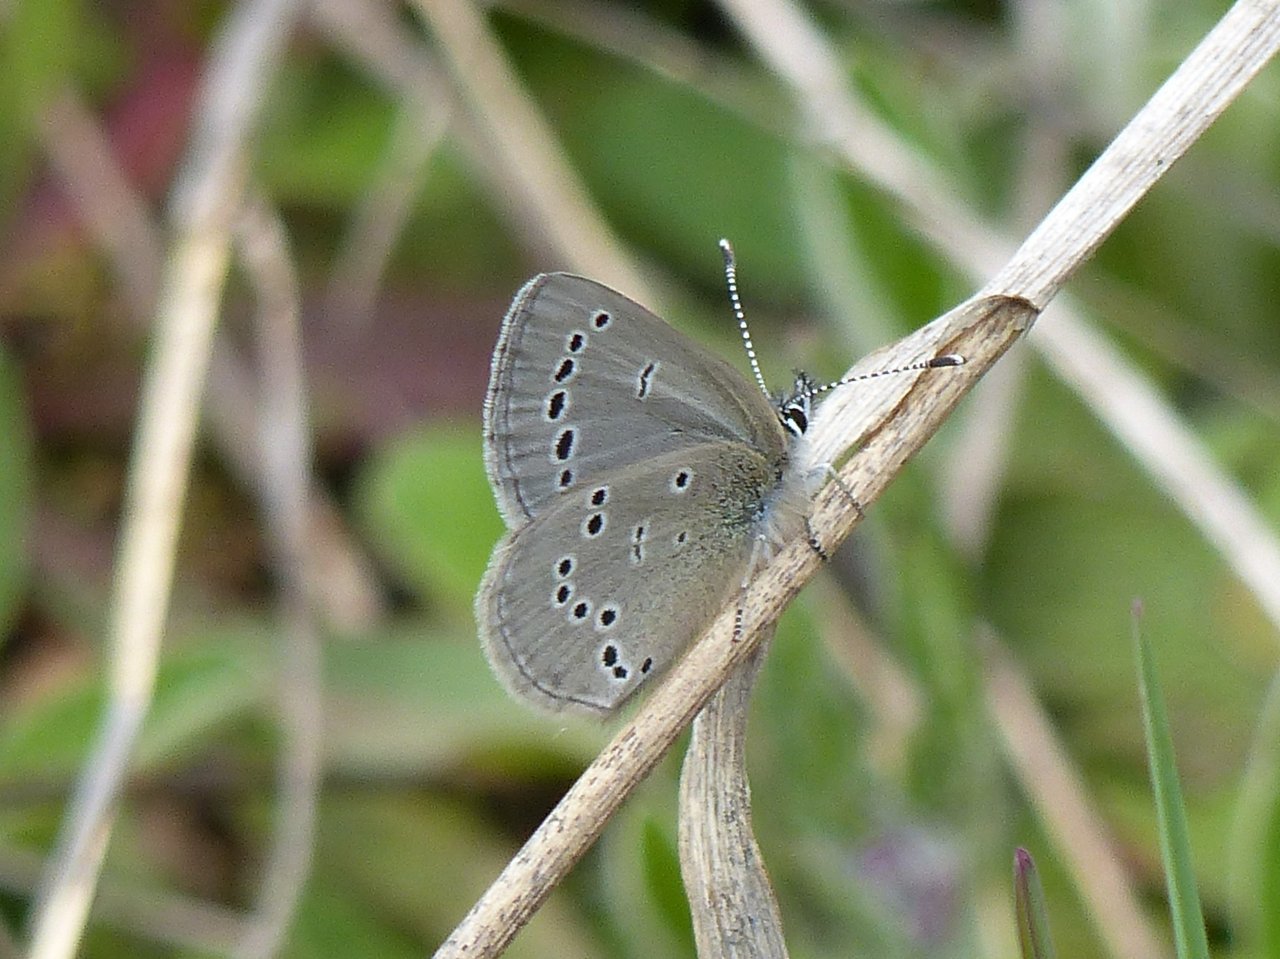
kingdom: Animalia
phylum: Arthropoda
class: Insecta
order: Lepidoptera
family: Lycaenidae
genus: Glaucopsyche
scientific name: Glaucopsyche lygdamus
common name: Silvery Blue
